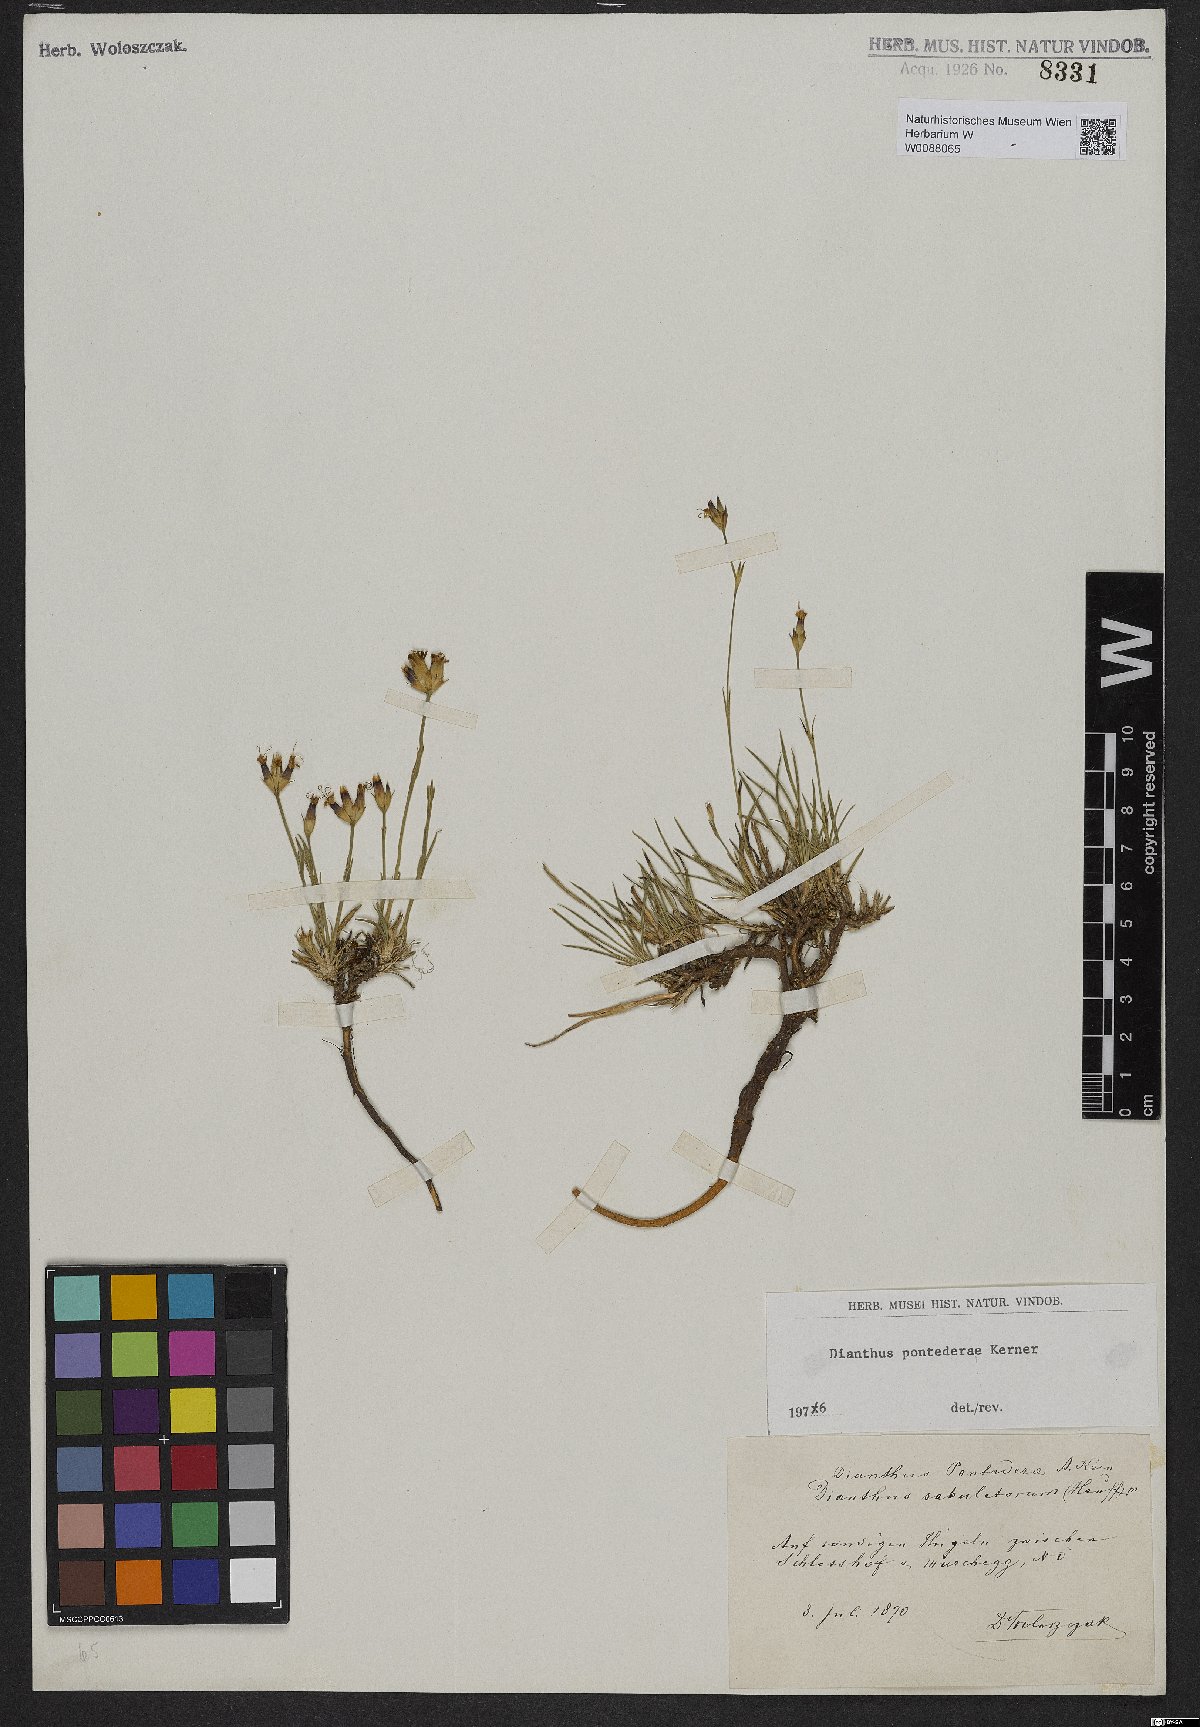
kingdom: Plantae
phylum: Tracheophyta
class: Magnoliopsida
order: Caryophyllales
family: Caryophyllaceae
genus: Dianthus
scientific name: Dianthus pontederae
